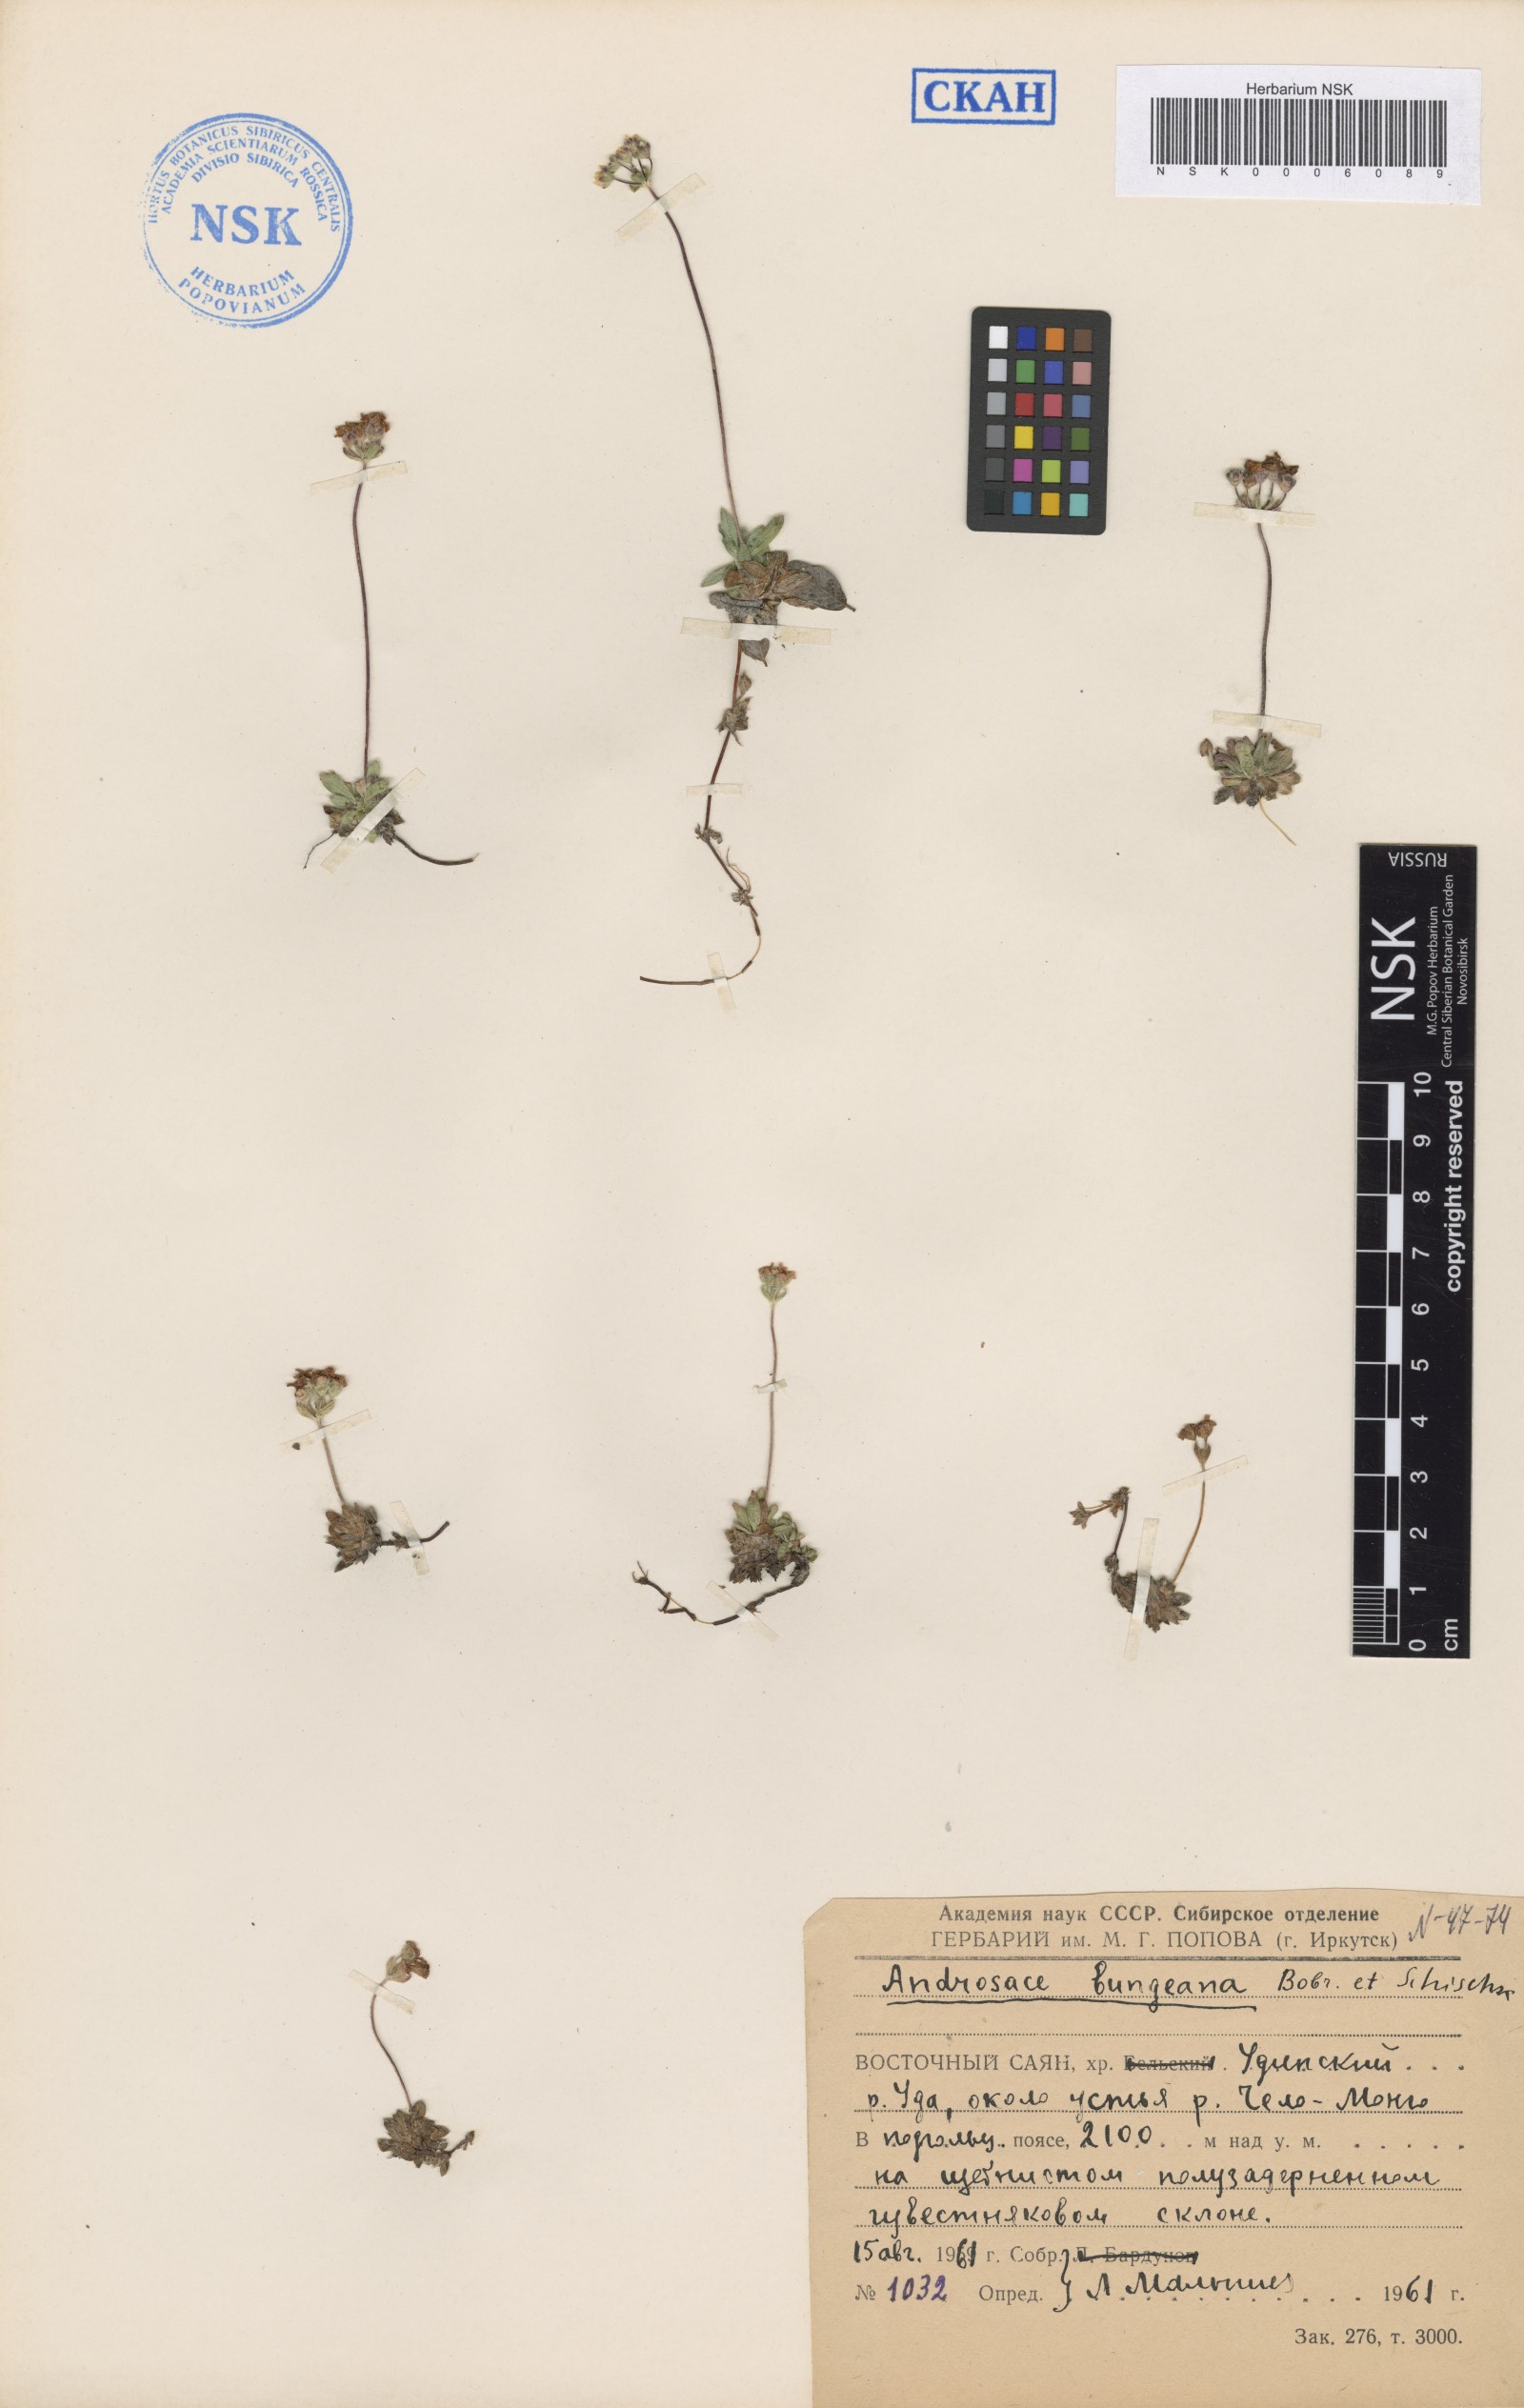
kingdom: Plantae
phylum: Tracheophyta
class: Magnoliopsida
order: Ericales
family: Primulaceae
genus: Androsace
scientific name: Androsace bungeana
